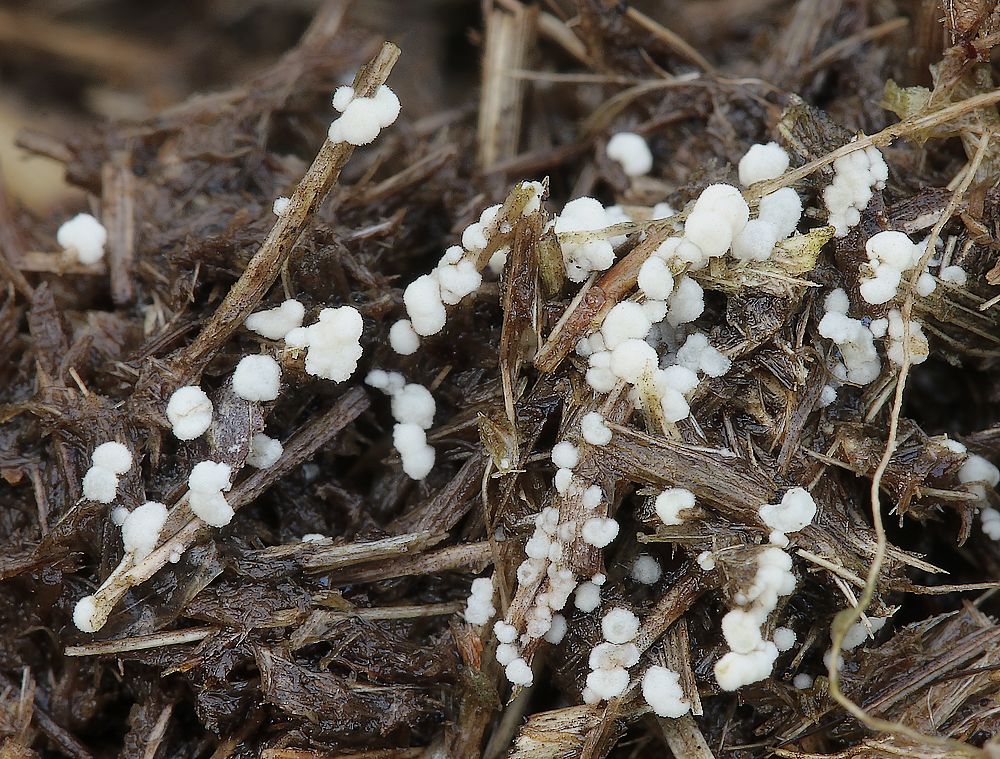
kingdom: Fungi
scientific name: Fungi
